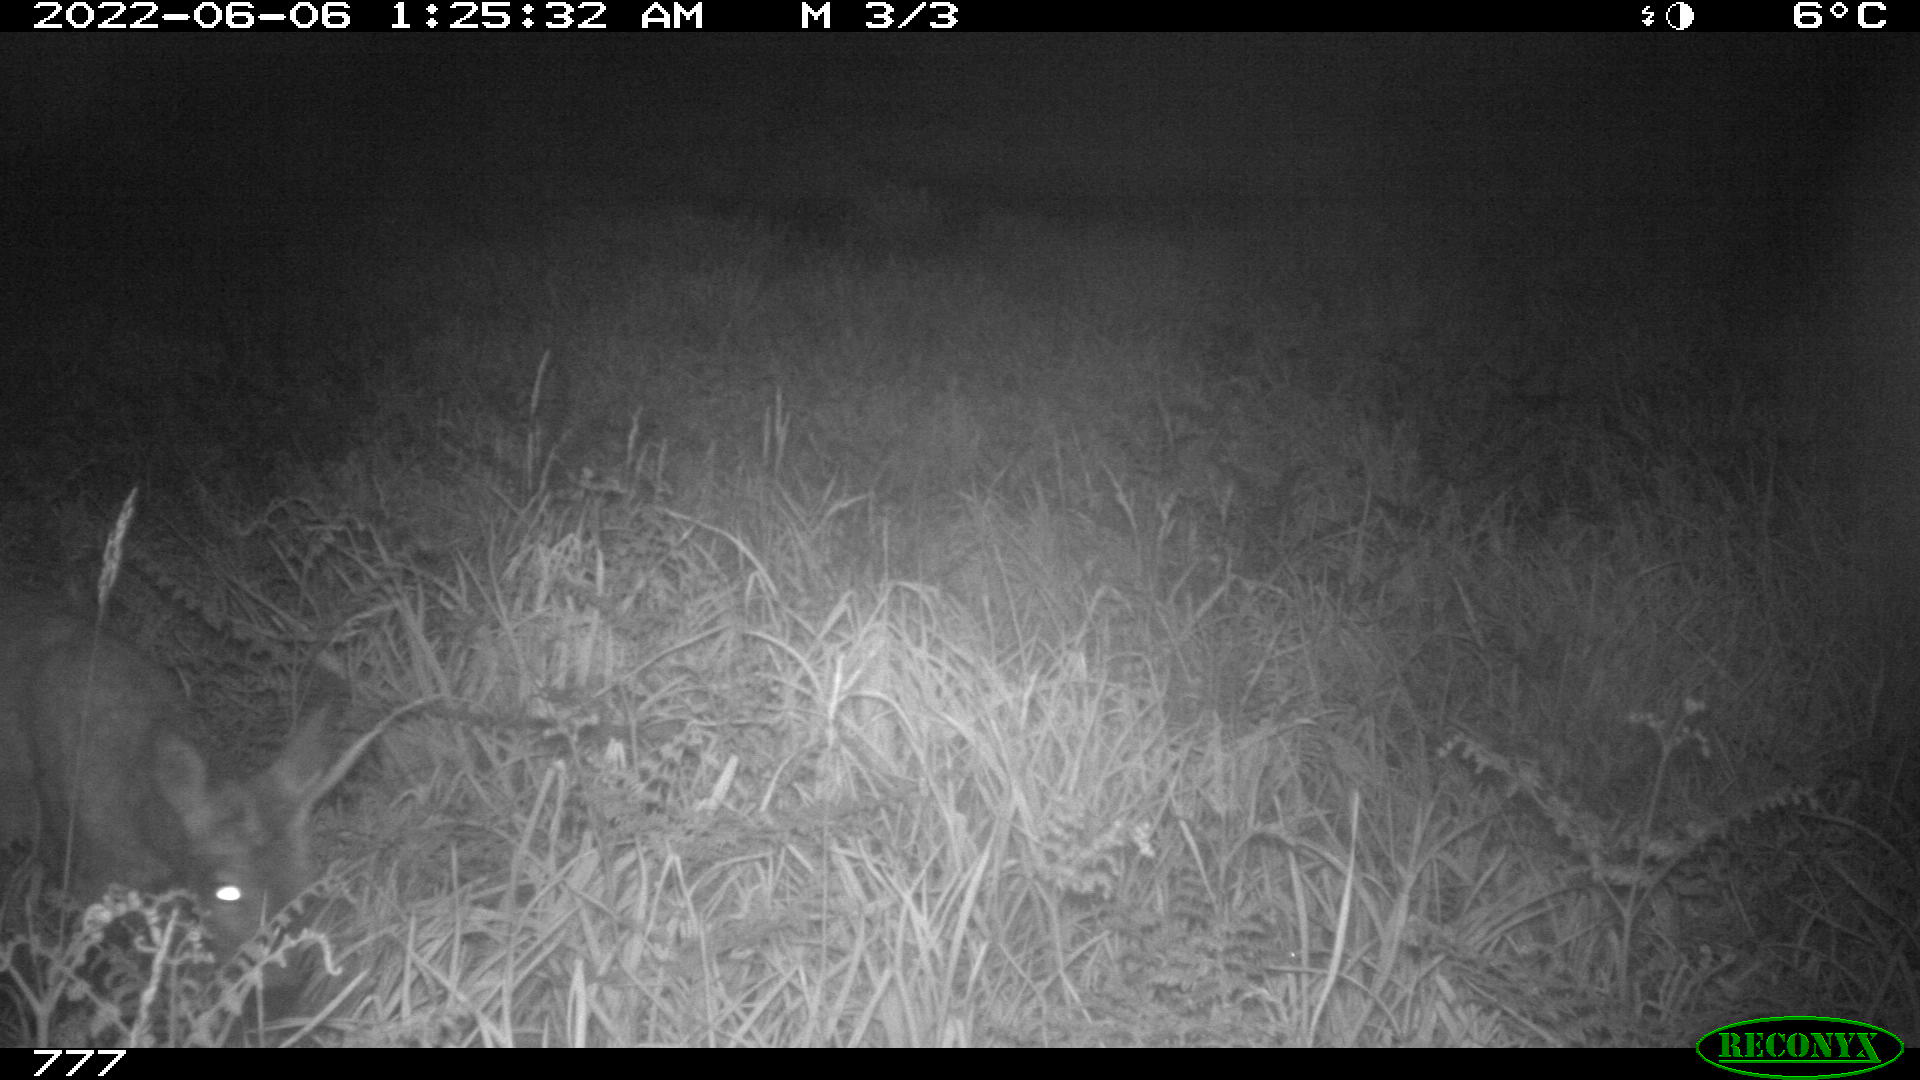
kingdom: Animalia
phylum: Chordata
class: Mammalia
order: Artiodactyla
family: Cervidae
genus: Capreolus
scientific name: Capreolus capreolus
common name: Western roe deer
